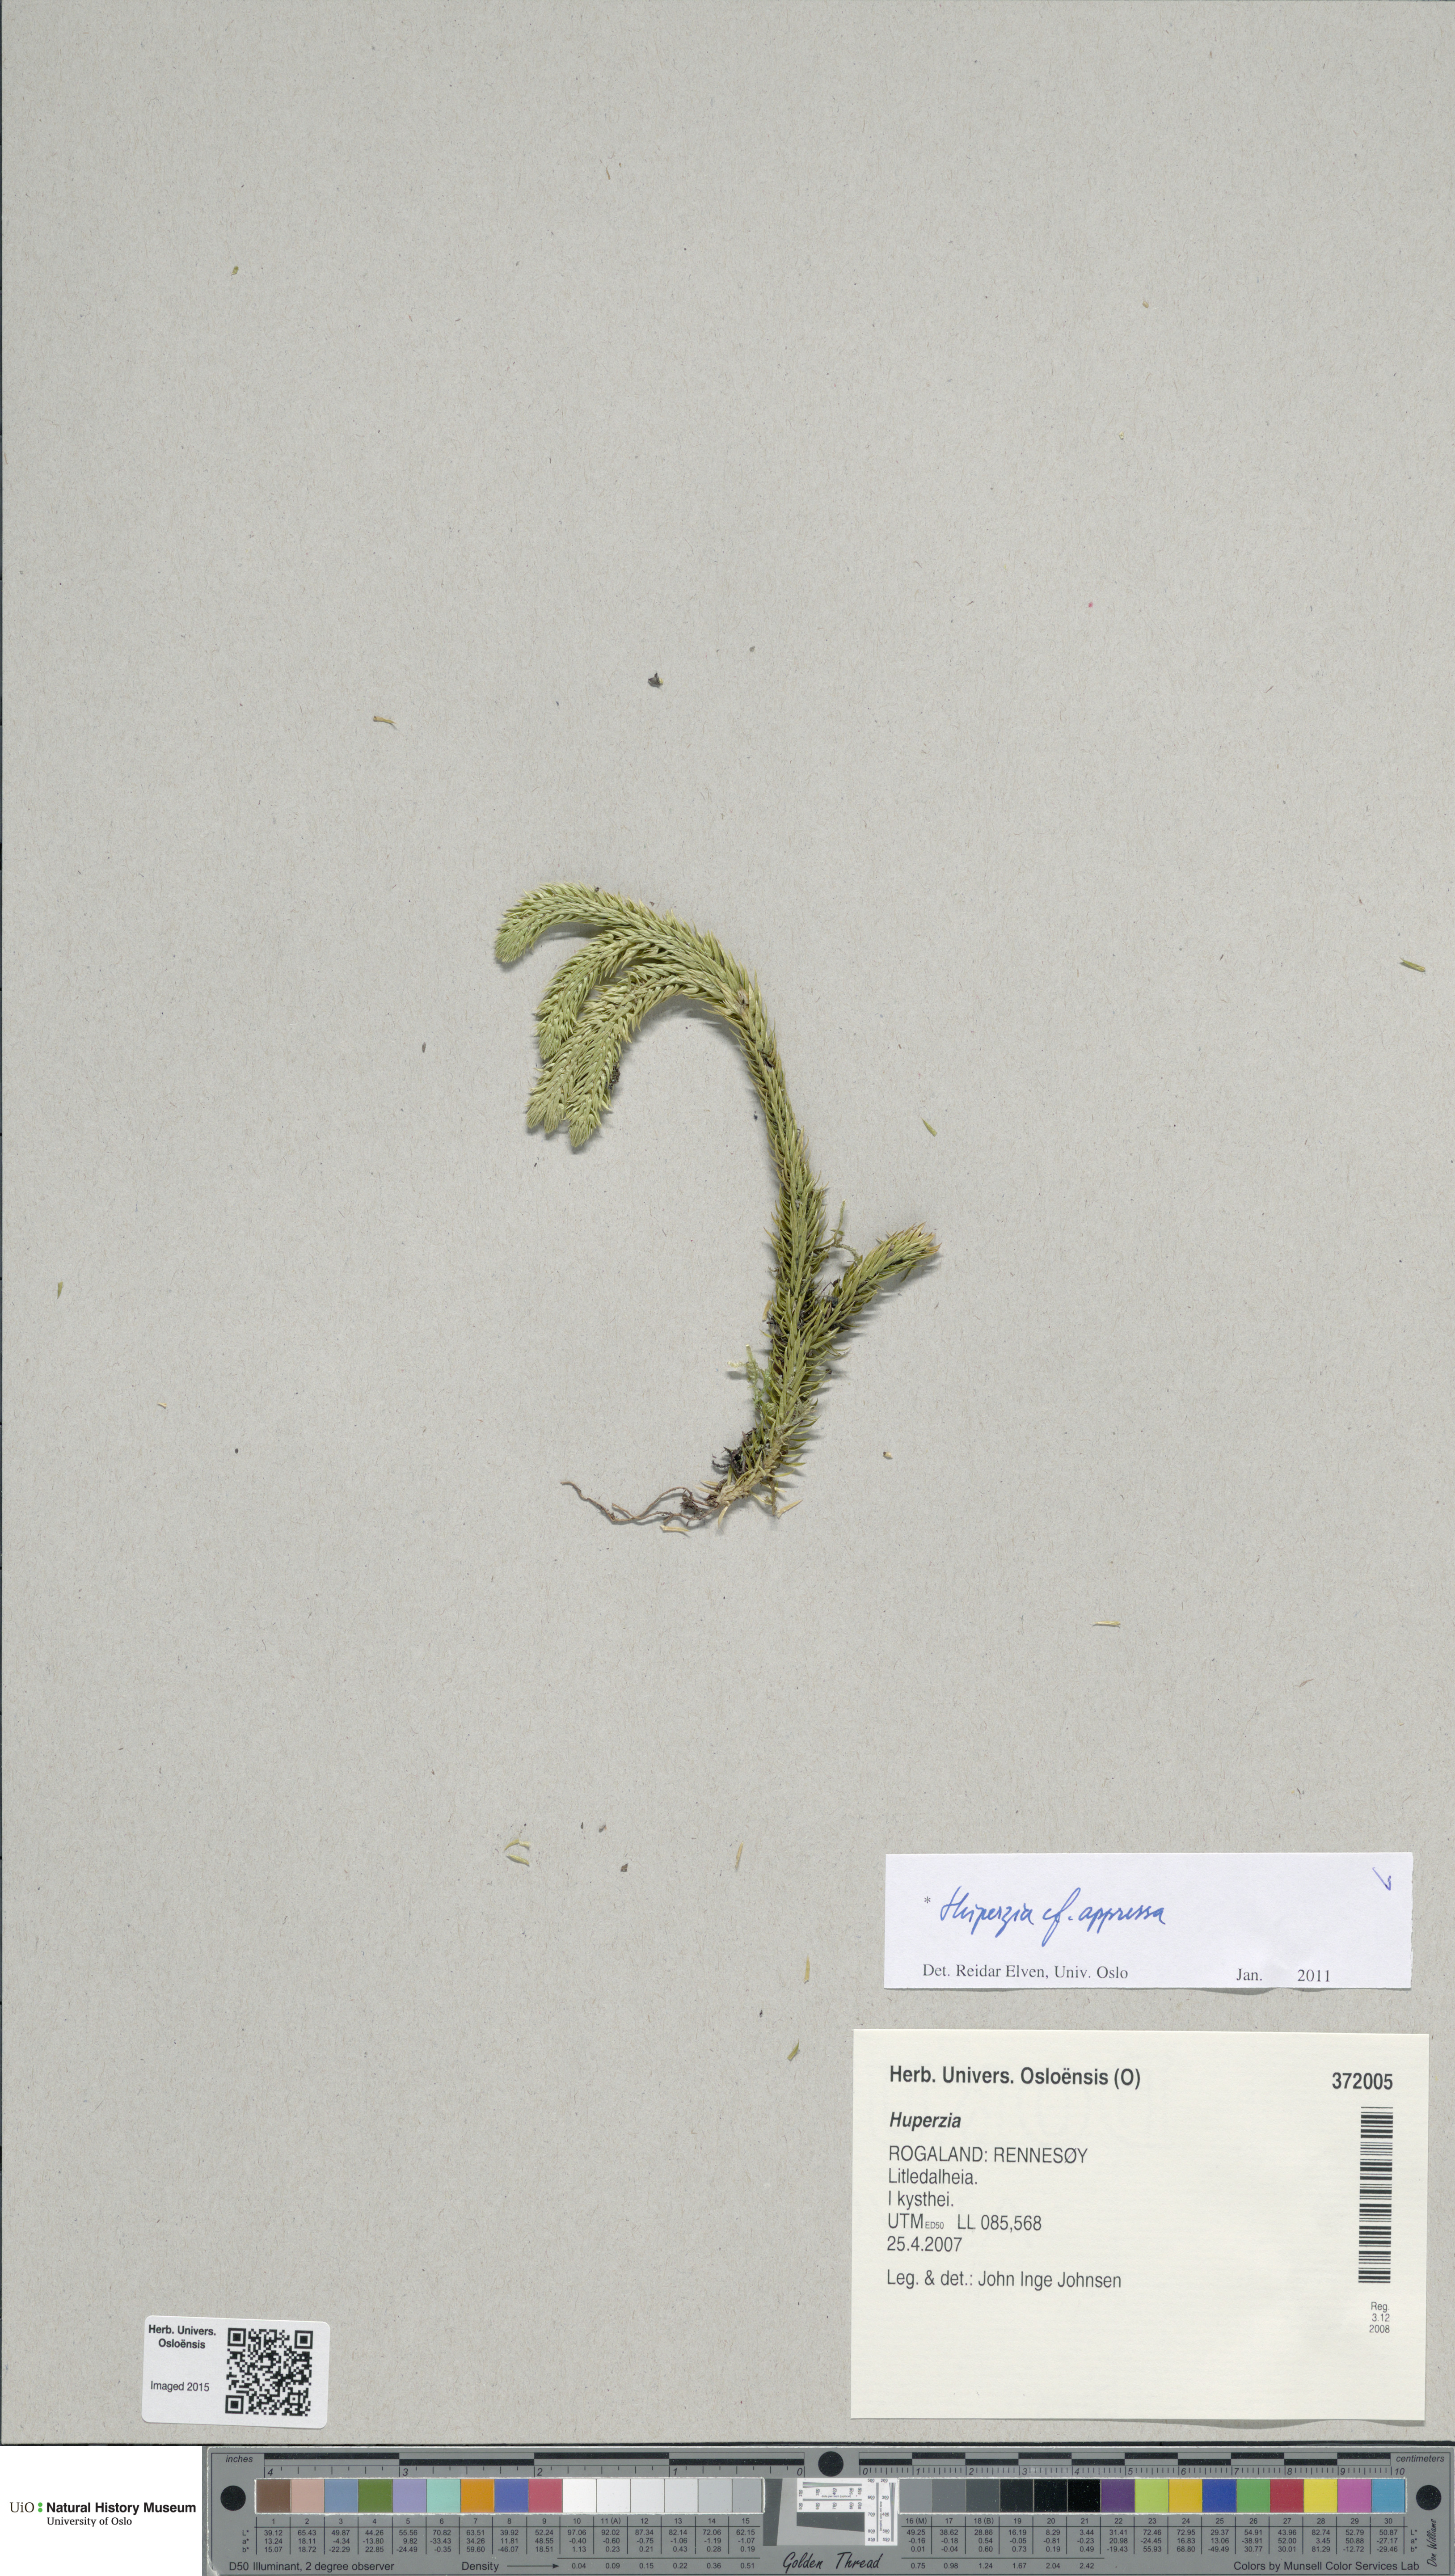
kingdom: Plantae
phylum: Tracheophyta
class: Lycopodiopsida
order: Lycopodiales
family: Lycopodiaceae
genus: Huperzia
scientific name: Huperzia selago
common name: Northern firmoss
